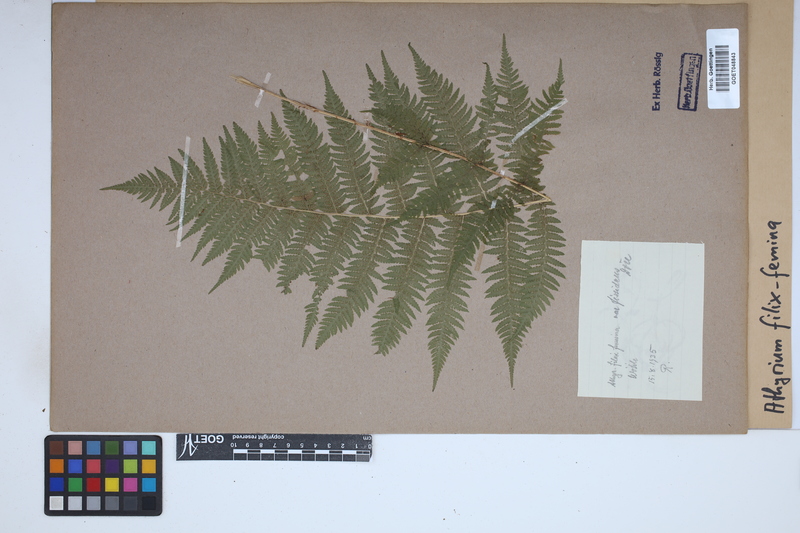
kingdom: Plantae
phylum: Tracheophyta
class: Polypodiopsida
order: Polypodiales
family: Athyriaceae
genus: Athyrium
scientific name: Athyrium filix-femina
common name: Lady fern
